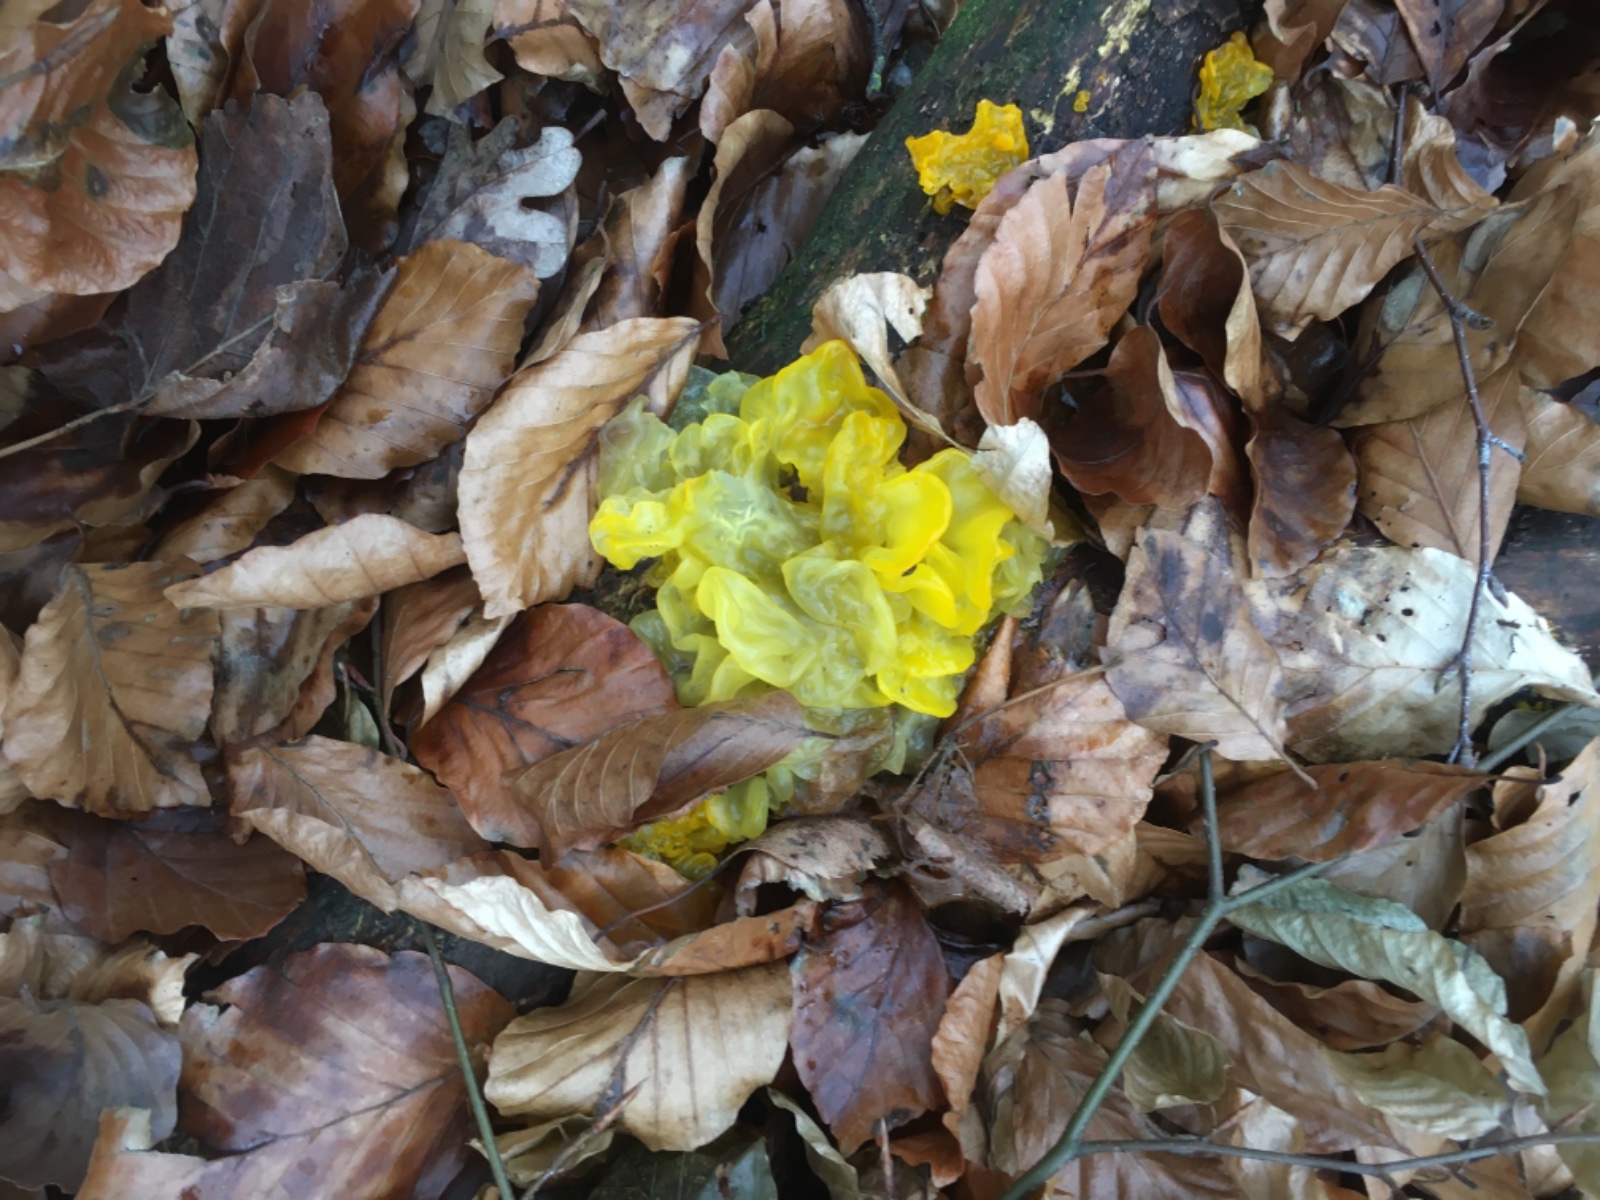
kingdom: Fungi
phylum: Basidiomycota
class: Tremellomycetes
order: Tremellales
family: Tremellaceae
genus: Tremella
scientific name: Tremella mesenterica
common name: gul bævresvamp
